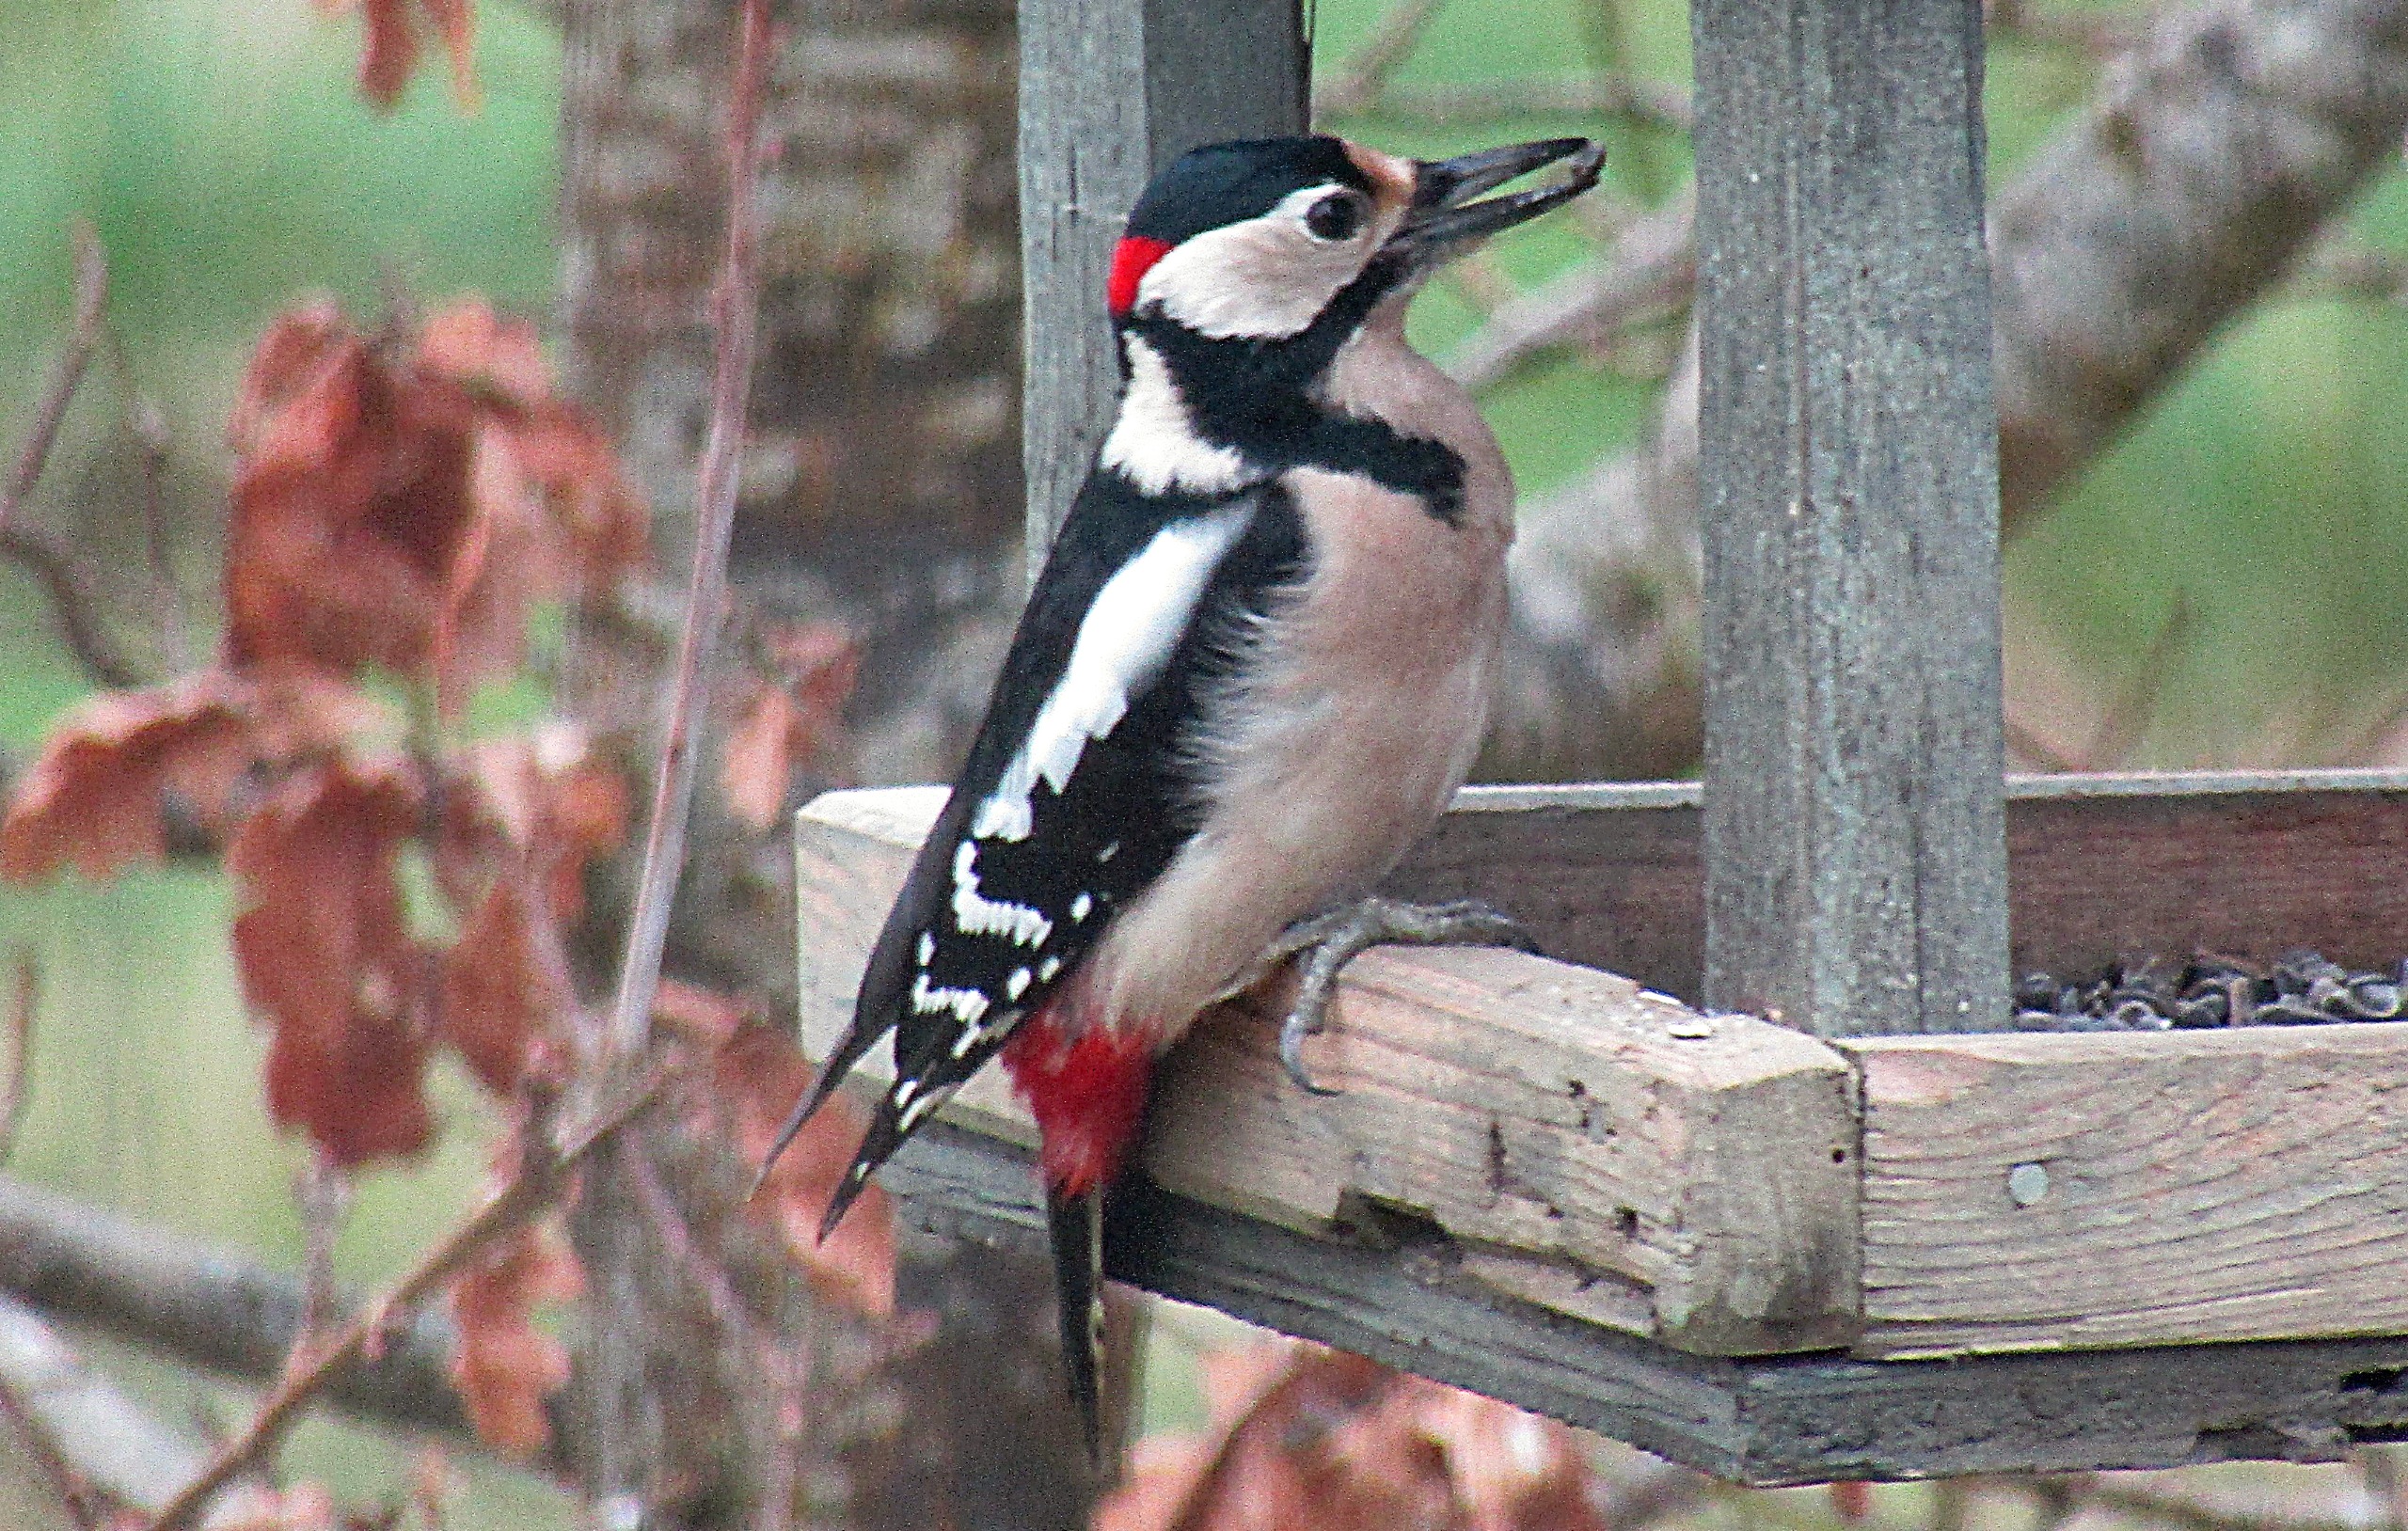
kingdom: Animalia
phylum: Chordata
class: Aves
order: Piciformes
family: Picidae
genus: Dendrocopos
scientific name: Dendrocopos major
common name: Stor flagspætte
